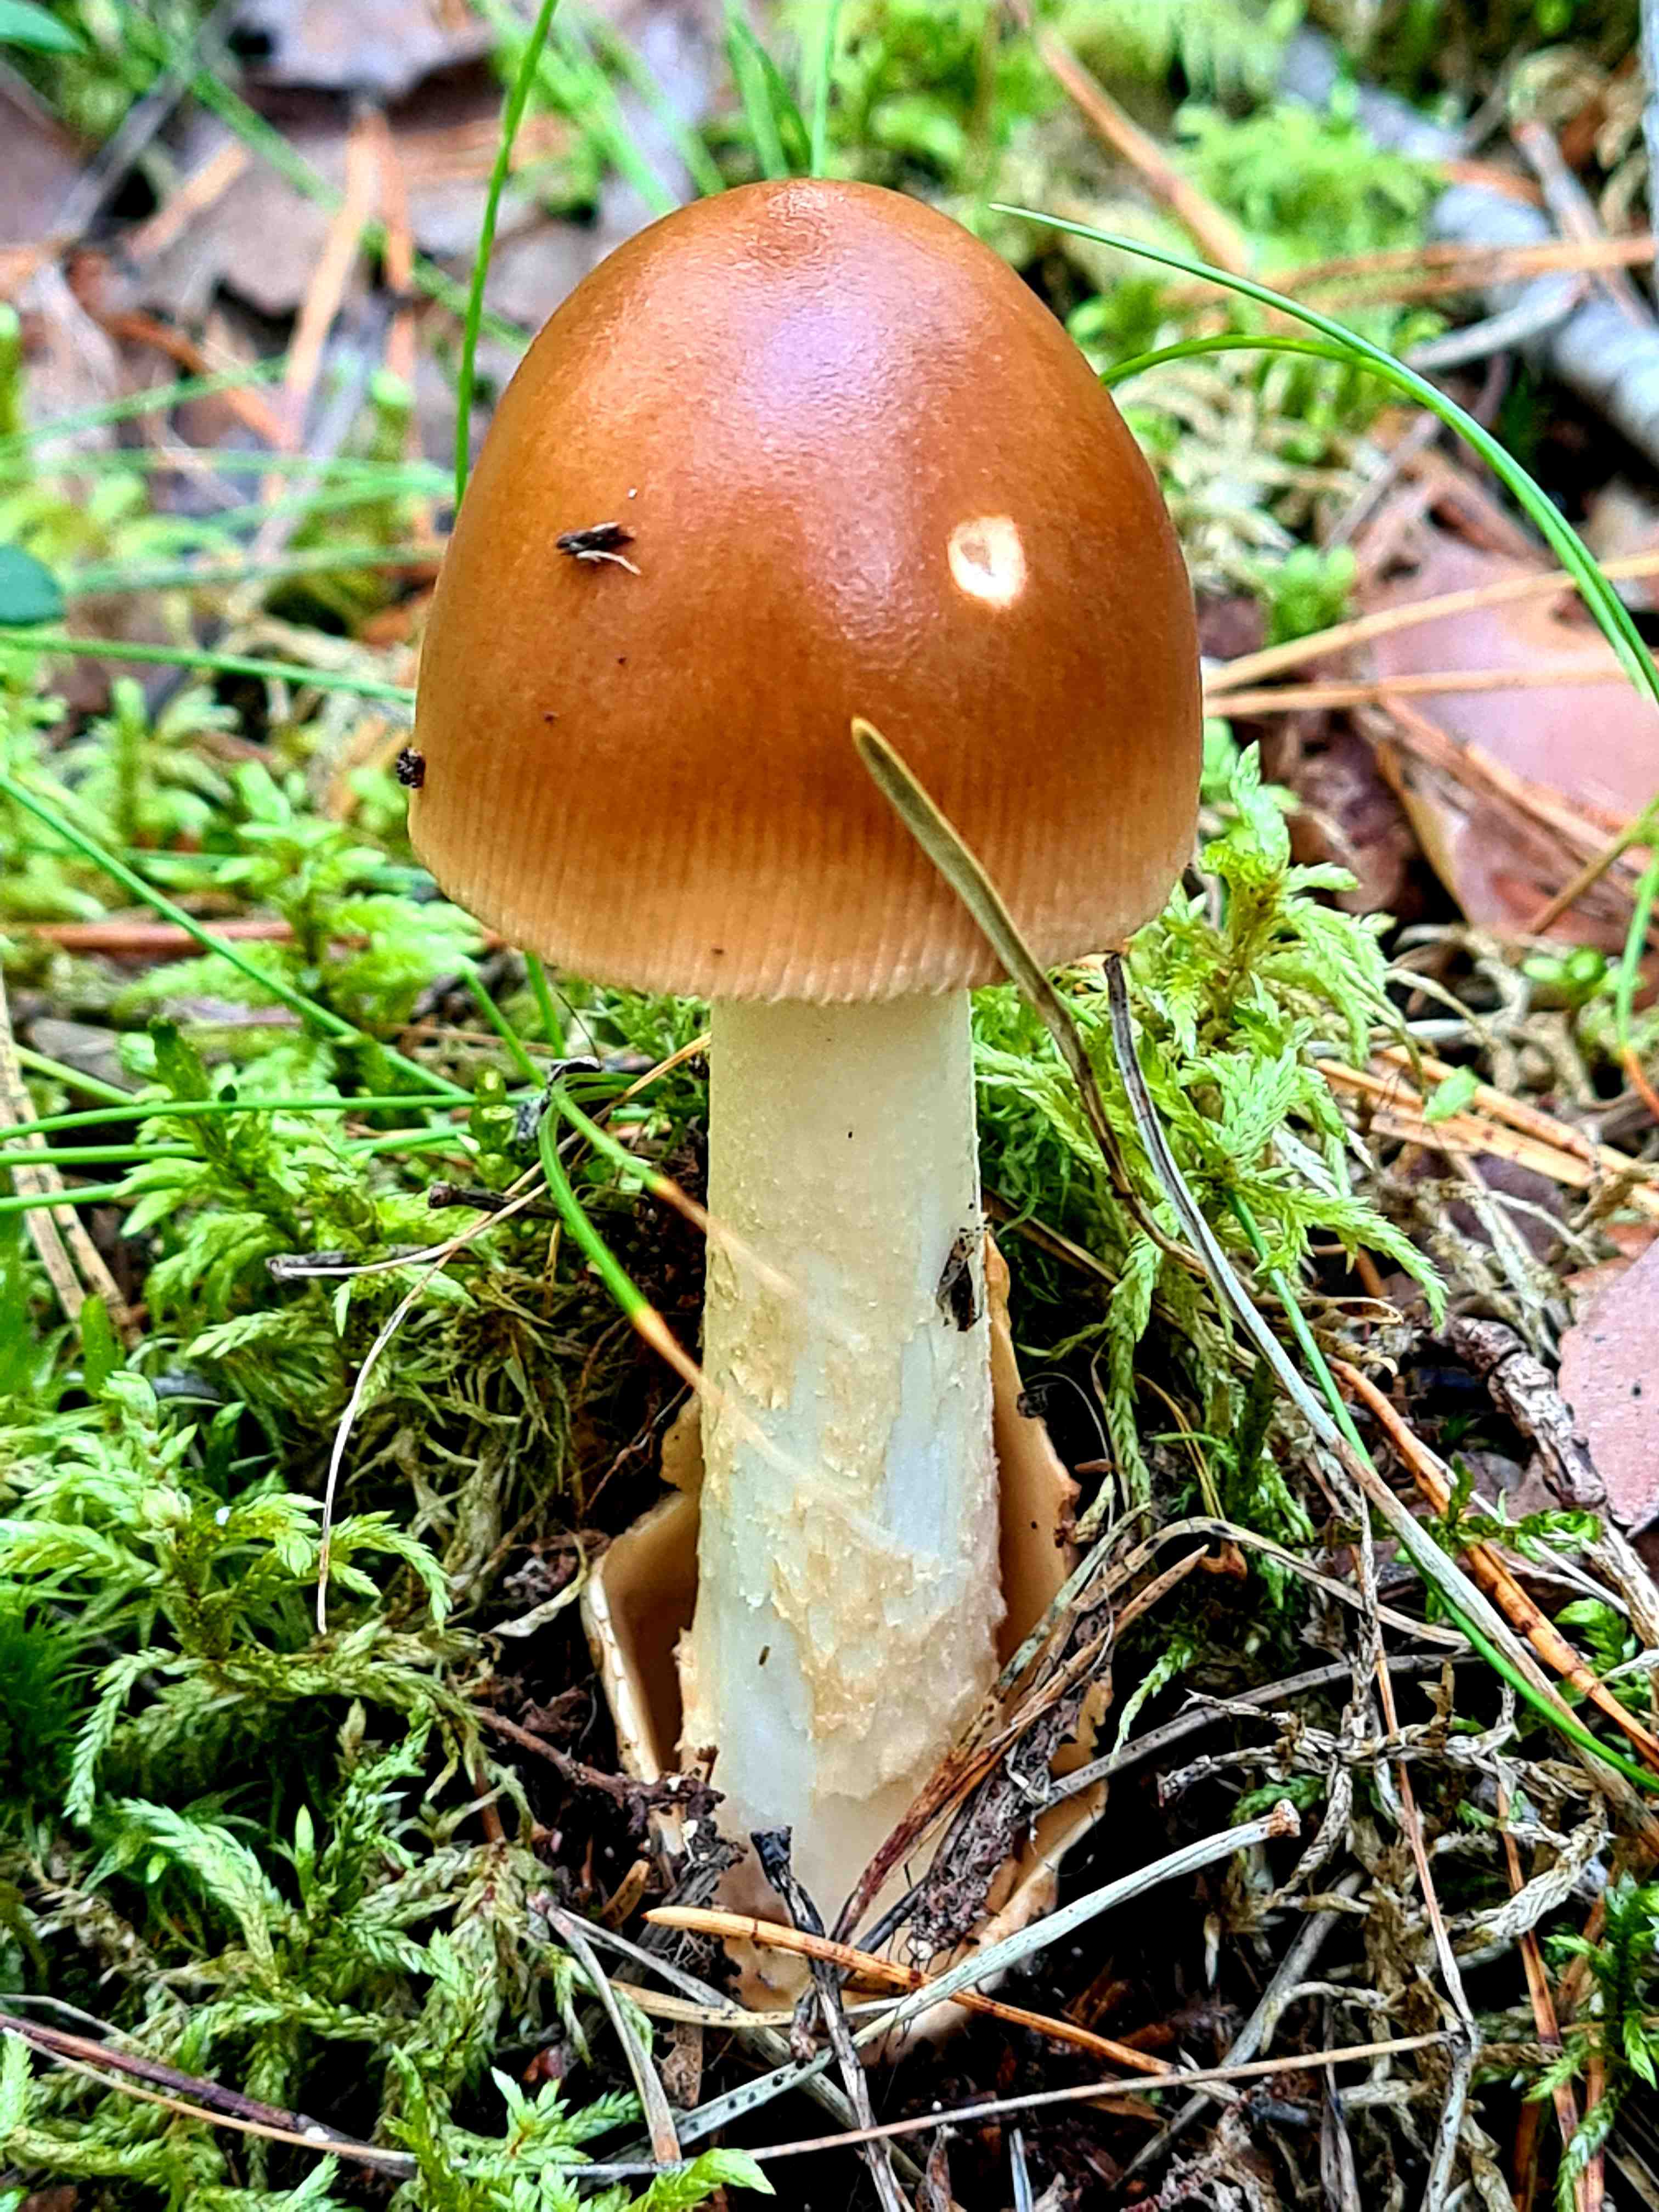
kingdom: Fungi
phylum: Basidiomycota
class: Agaricomycetes
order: Agaricales
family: Amanitaceae
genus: Amanita
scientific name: Amanita fulva
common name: brun kam-fluesvamp
